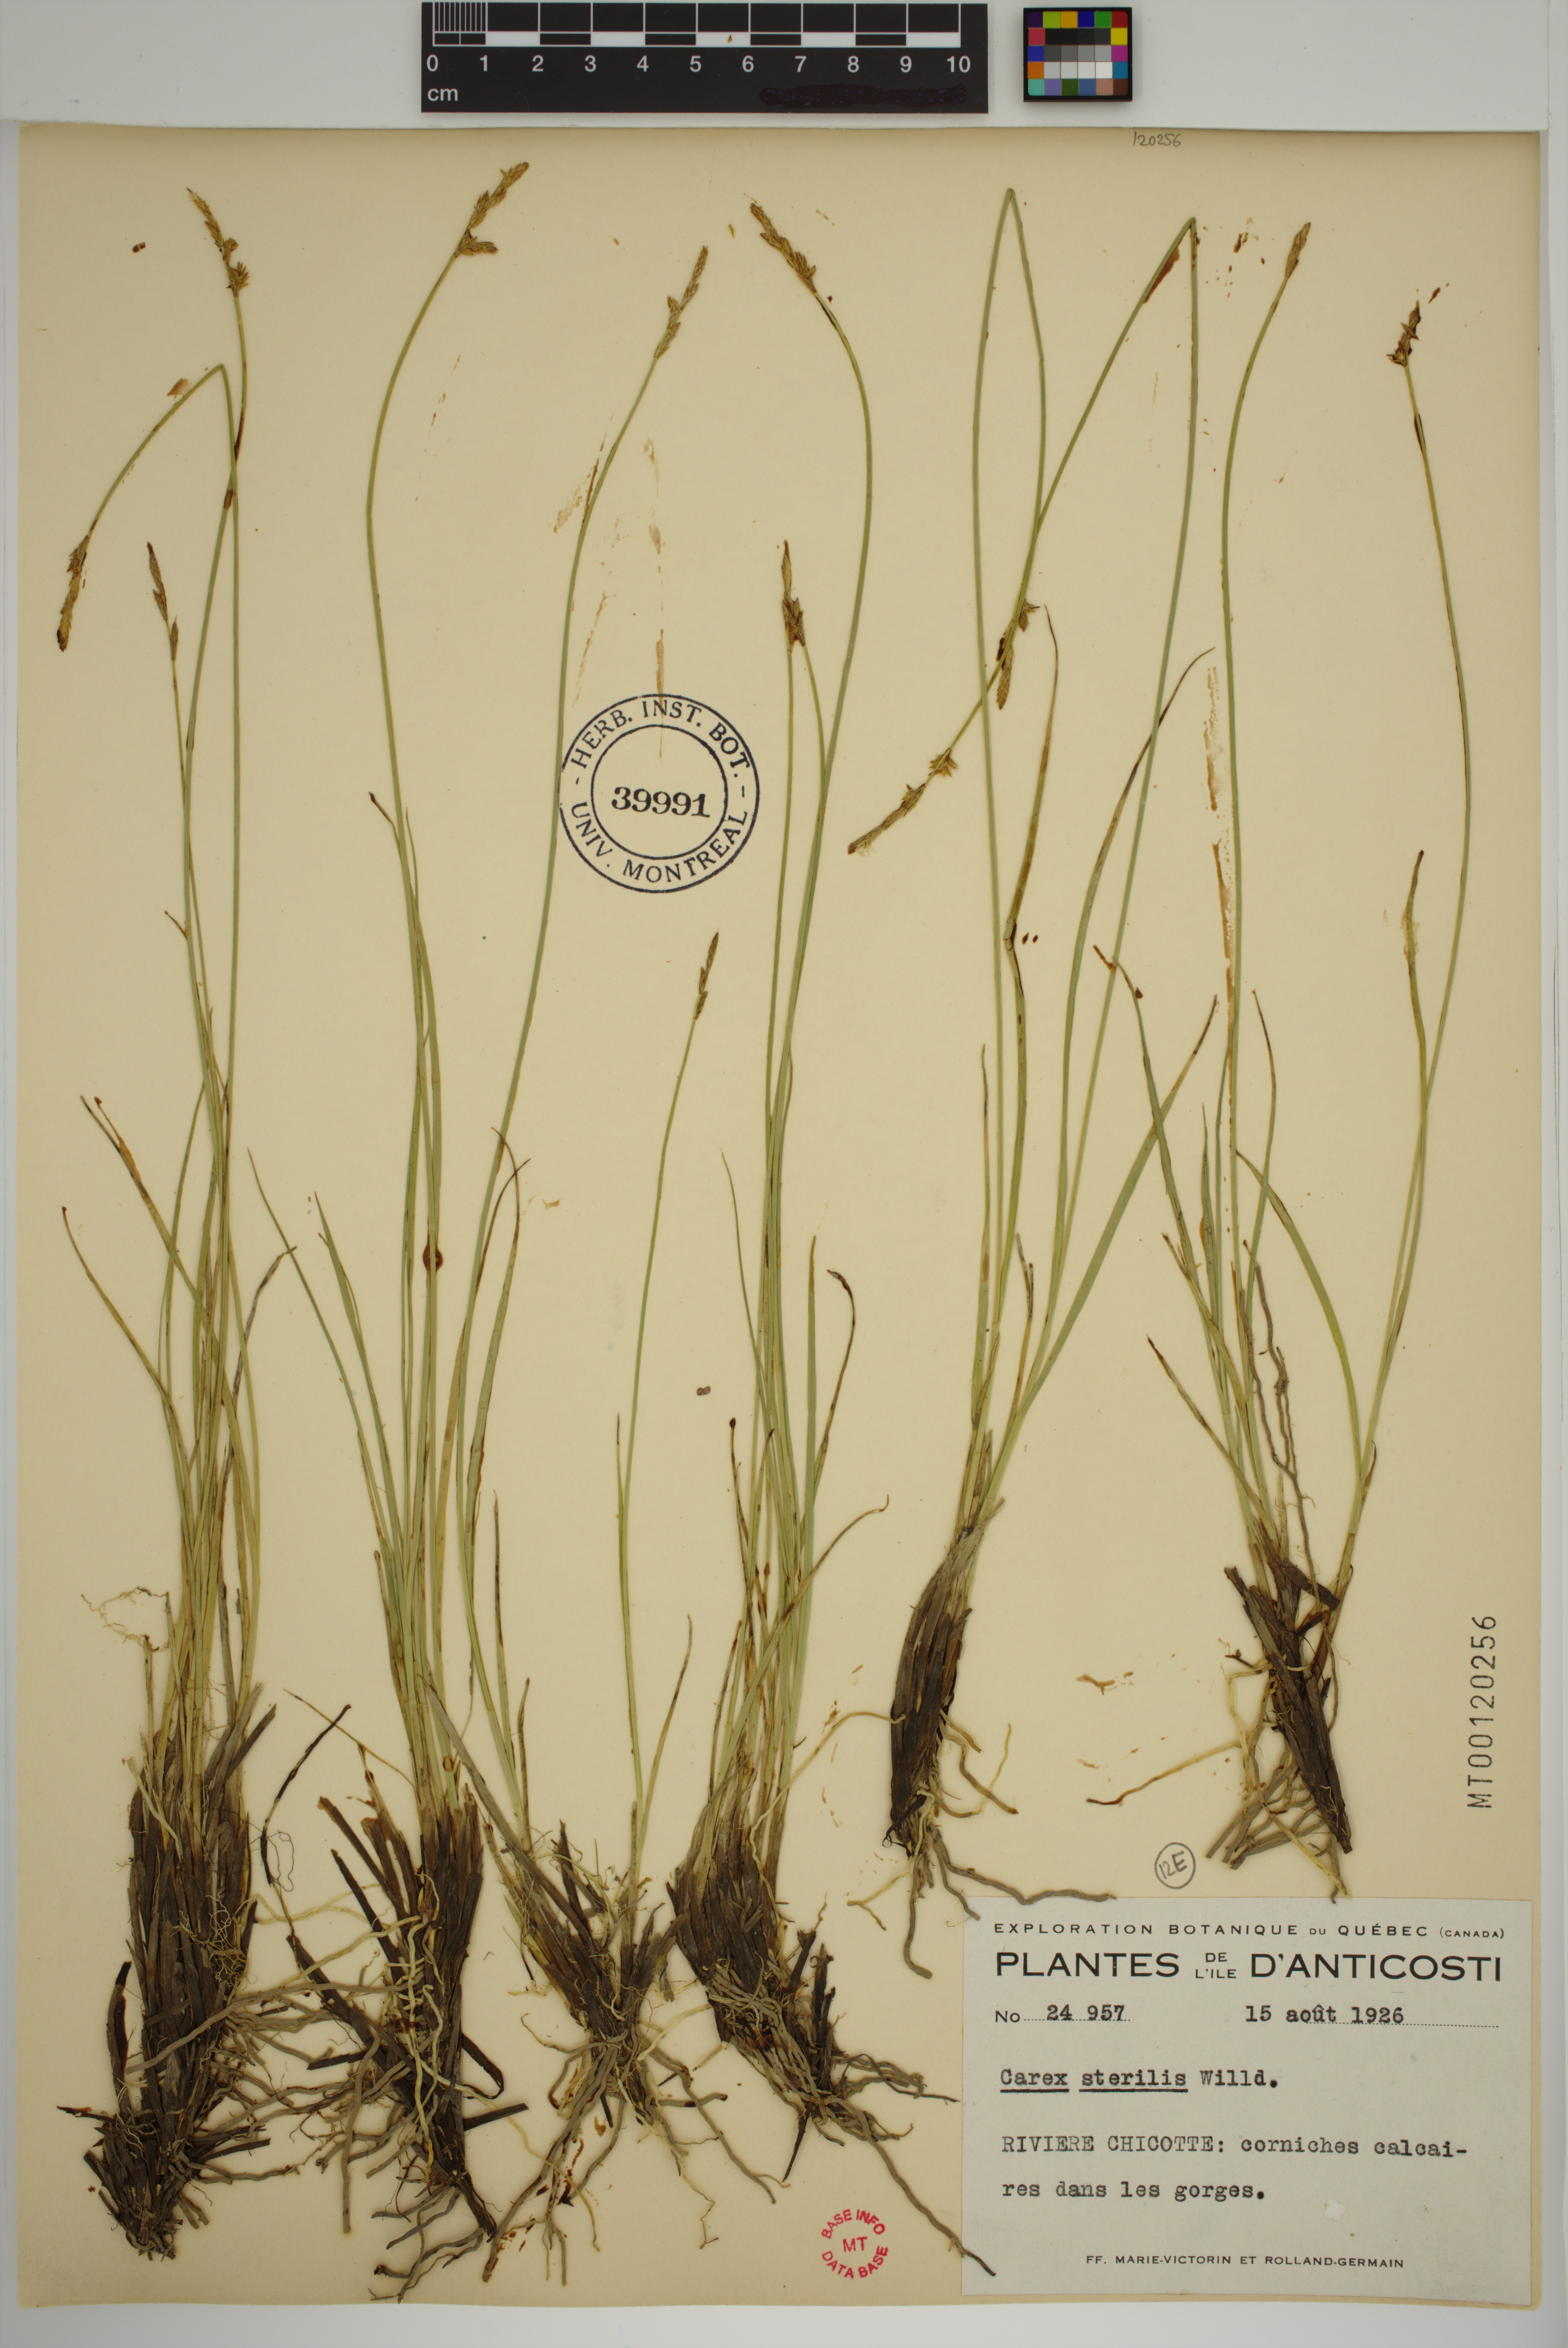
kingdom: Plantae
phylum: Tracheophyta
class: Liliopsida
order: Poales
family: Cyperaceae
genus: Carex
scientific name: Carex sterilis
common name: Dioecious sedge
